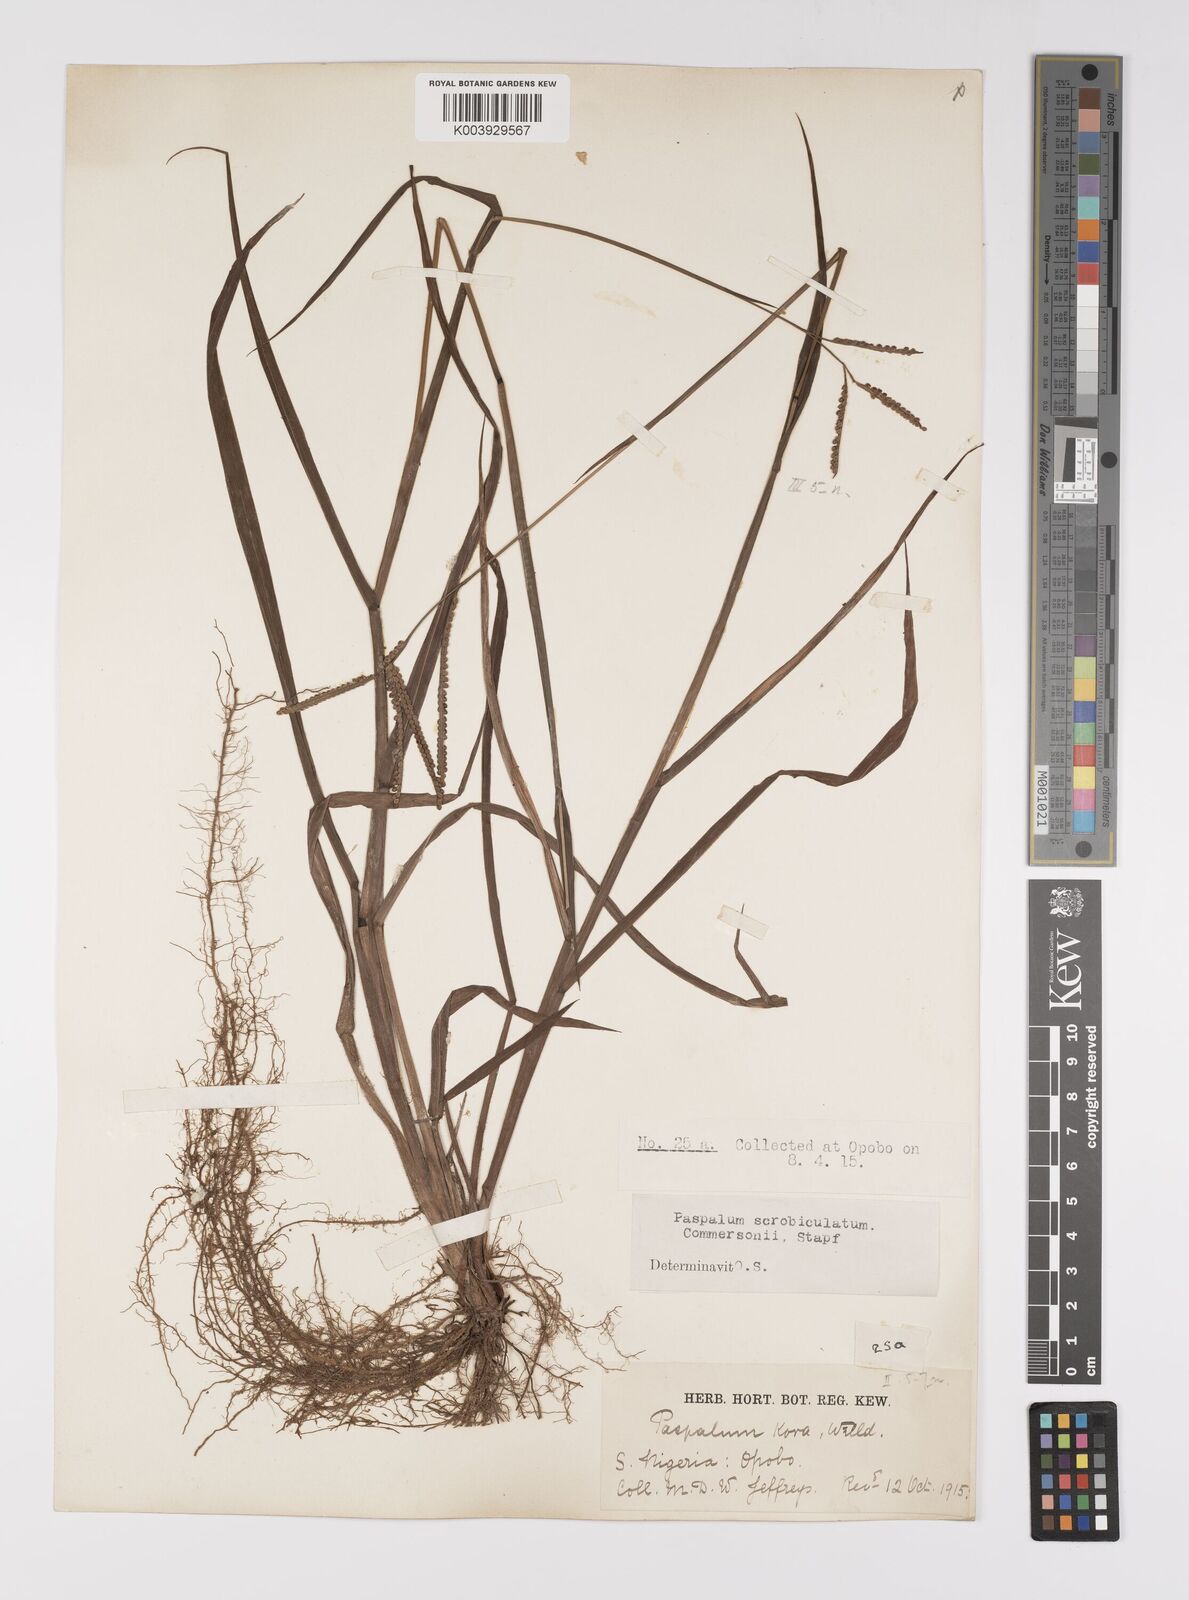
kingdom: Plantae
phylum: Tracheophyta
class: Liliopsida
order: Poales
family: Poaceae
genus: Paspalum
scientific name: Paspalum scrobiculatum
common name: Kodo millet
